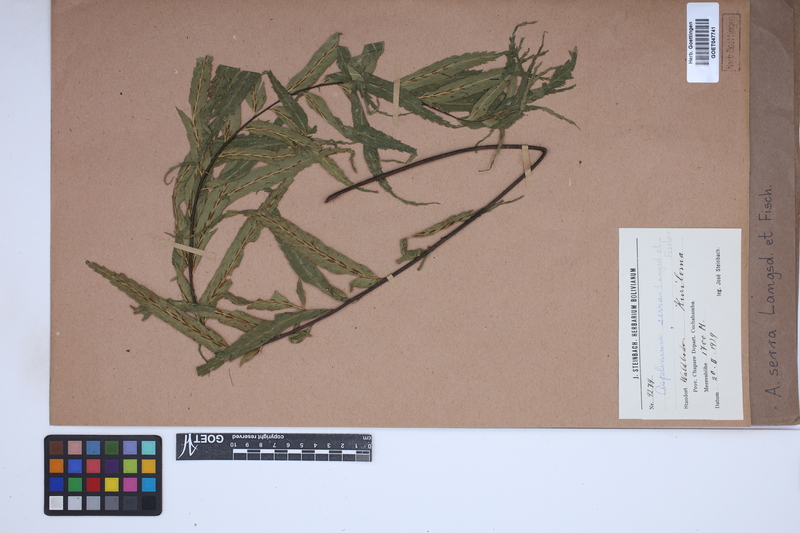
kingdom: Plantae
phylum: Tracheophyta
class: Polypodiopsida
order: Polypodiales
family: Aspleniaceae
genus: Asplenium
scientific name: Asplenium serra
